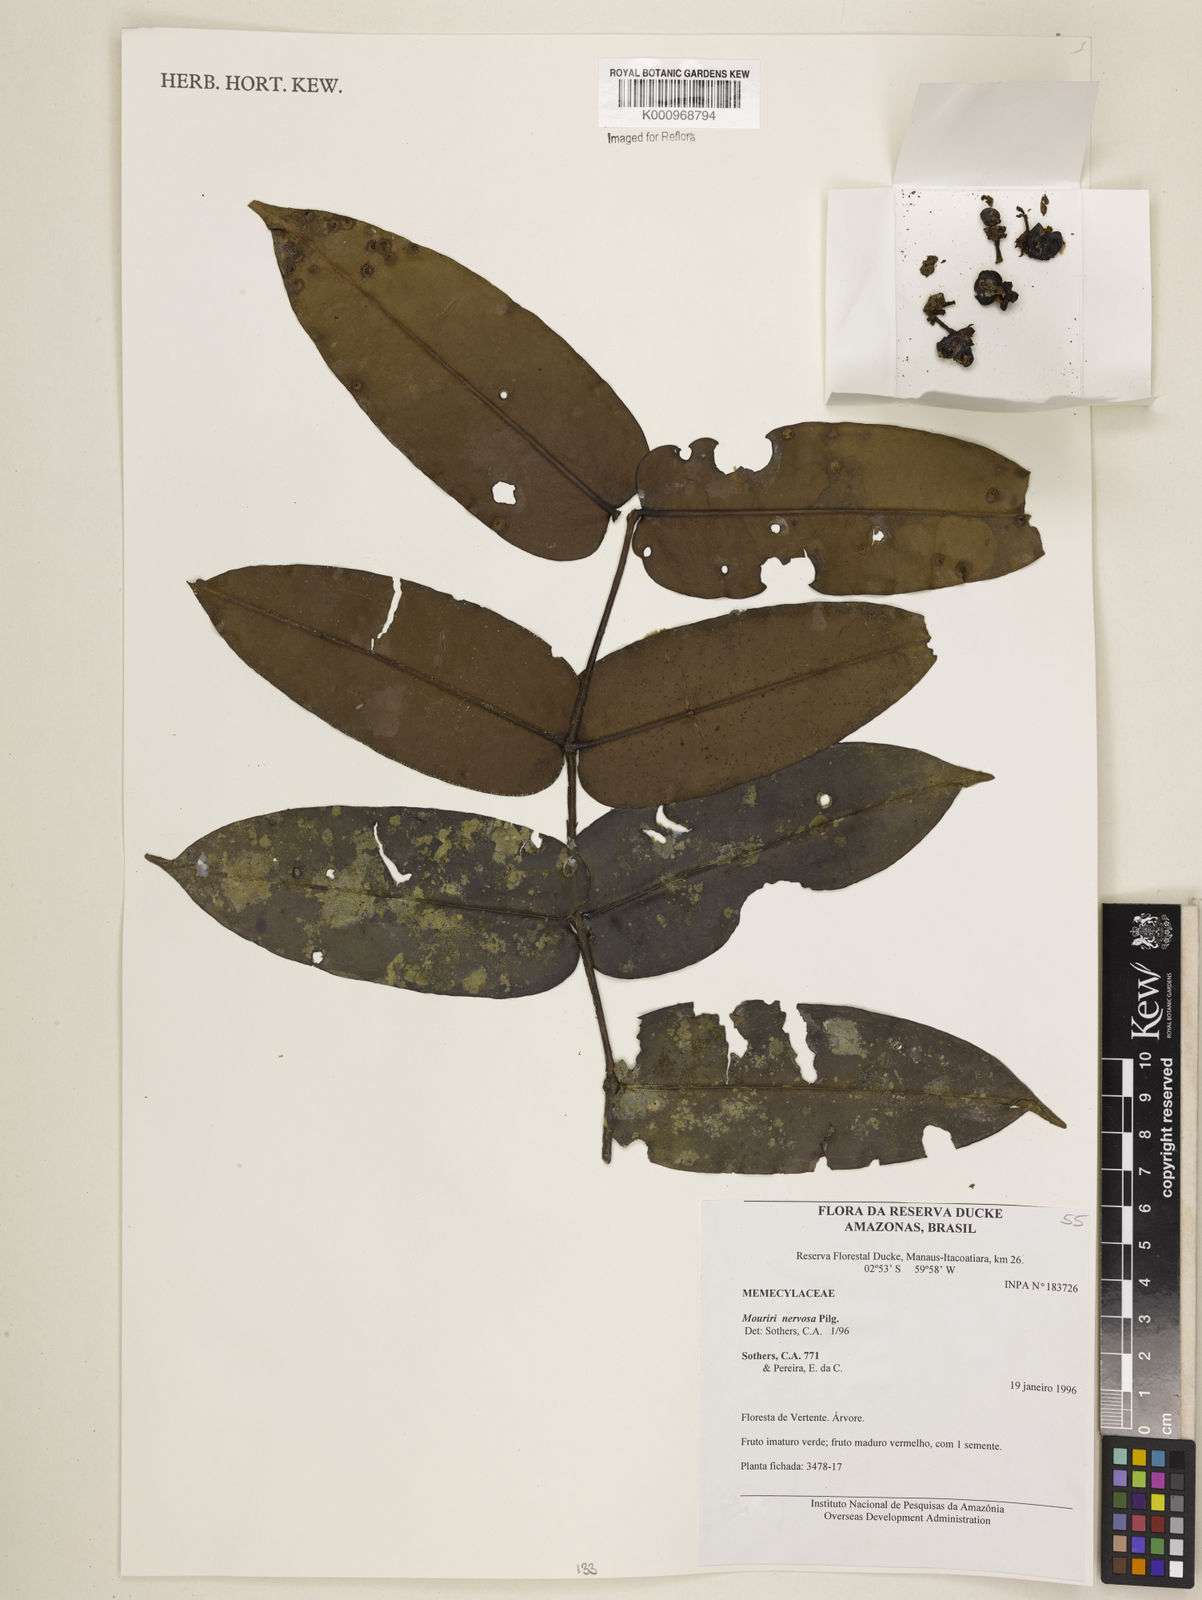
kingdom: Plantae
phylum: Tracheophyta
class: Magnoliopsida
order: Myrtales
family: Melastomataceae
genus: Mouriri
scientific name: Mouriri sideroxylon
